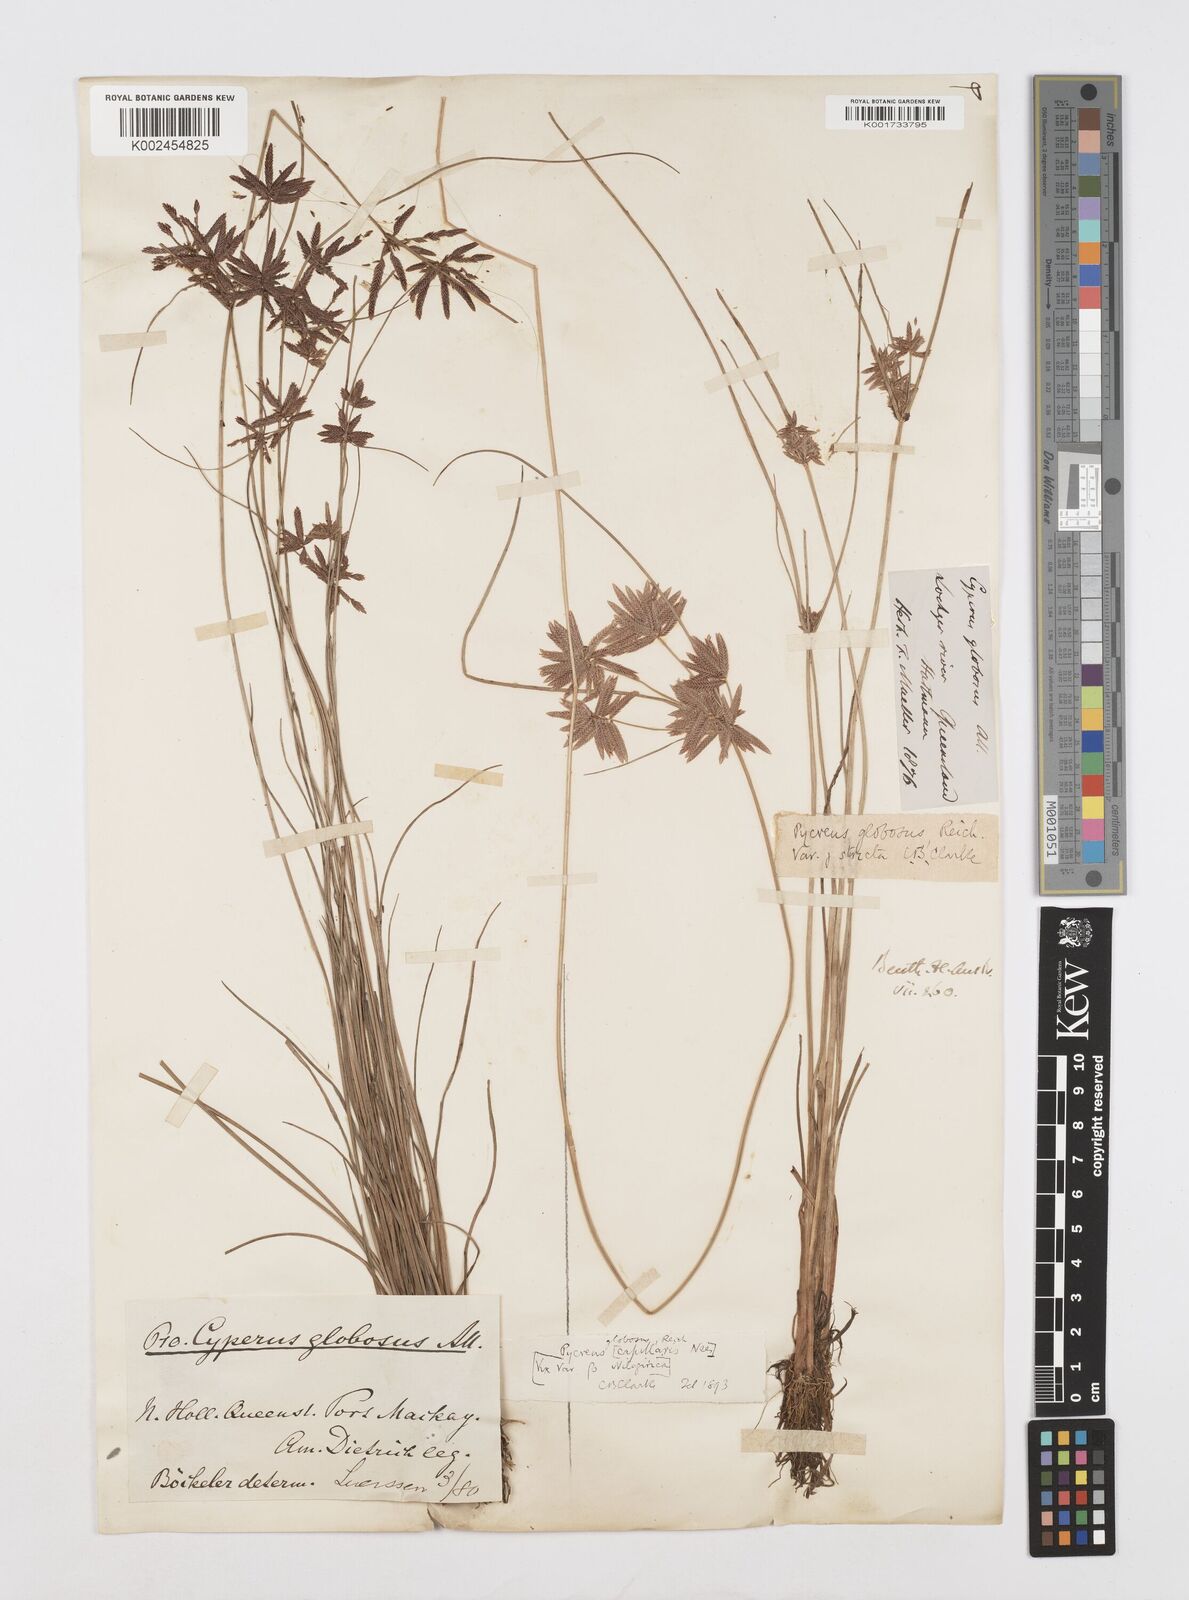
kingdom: Plantae
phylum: Tracheophyta
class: Liliopsida
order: Poales
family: Cyperaceae
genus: Cyperus
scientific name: Cyperus flavidus
